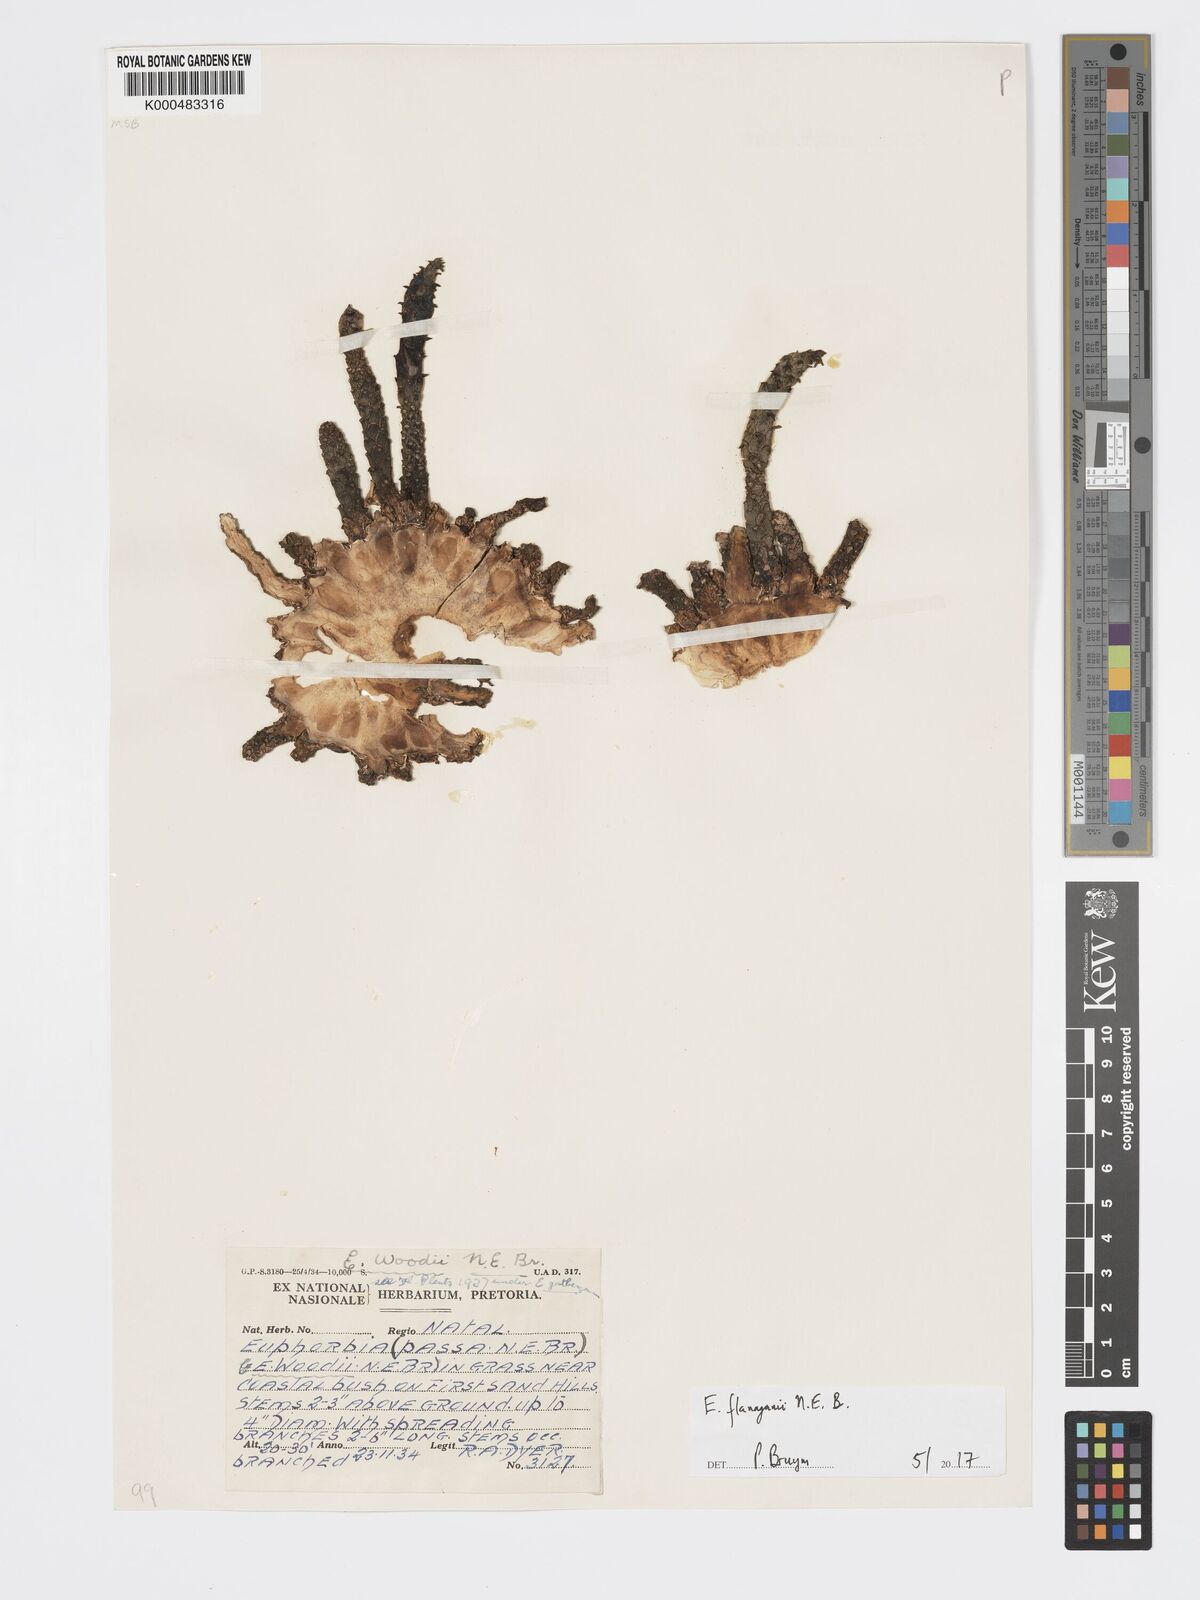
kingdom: Plantae
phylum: Tracheophyta
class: Magnoliopsida
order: Malpighiales
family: Euphorbiaceae
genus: Euphorbia
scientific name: Euphorbia woodii
